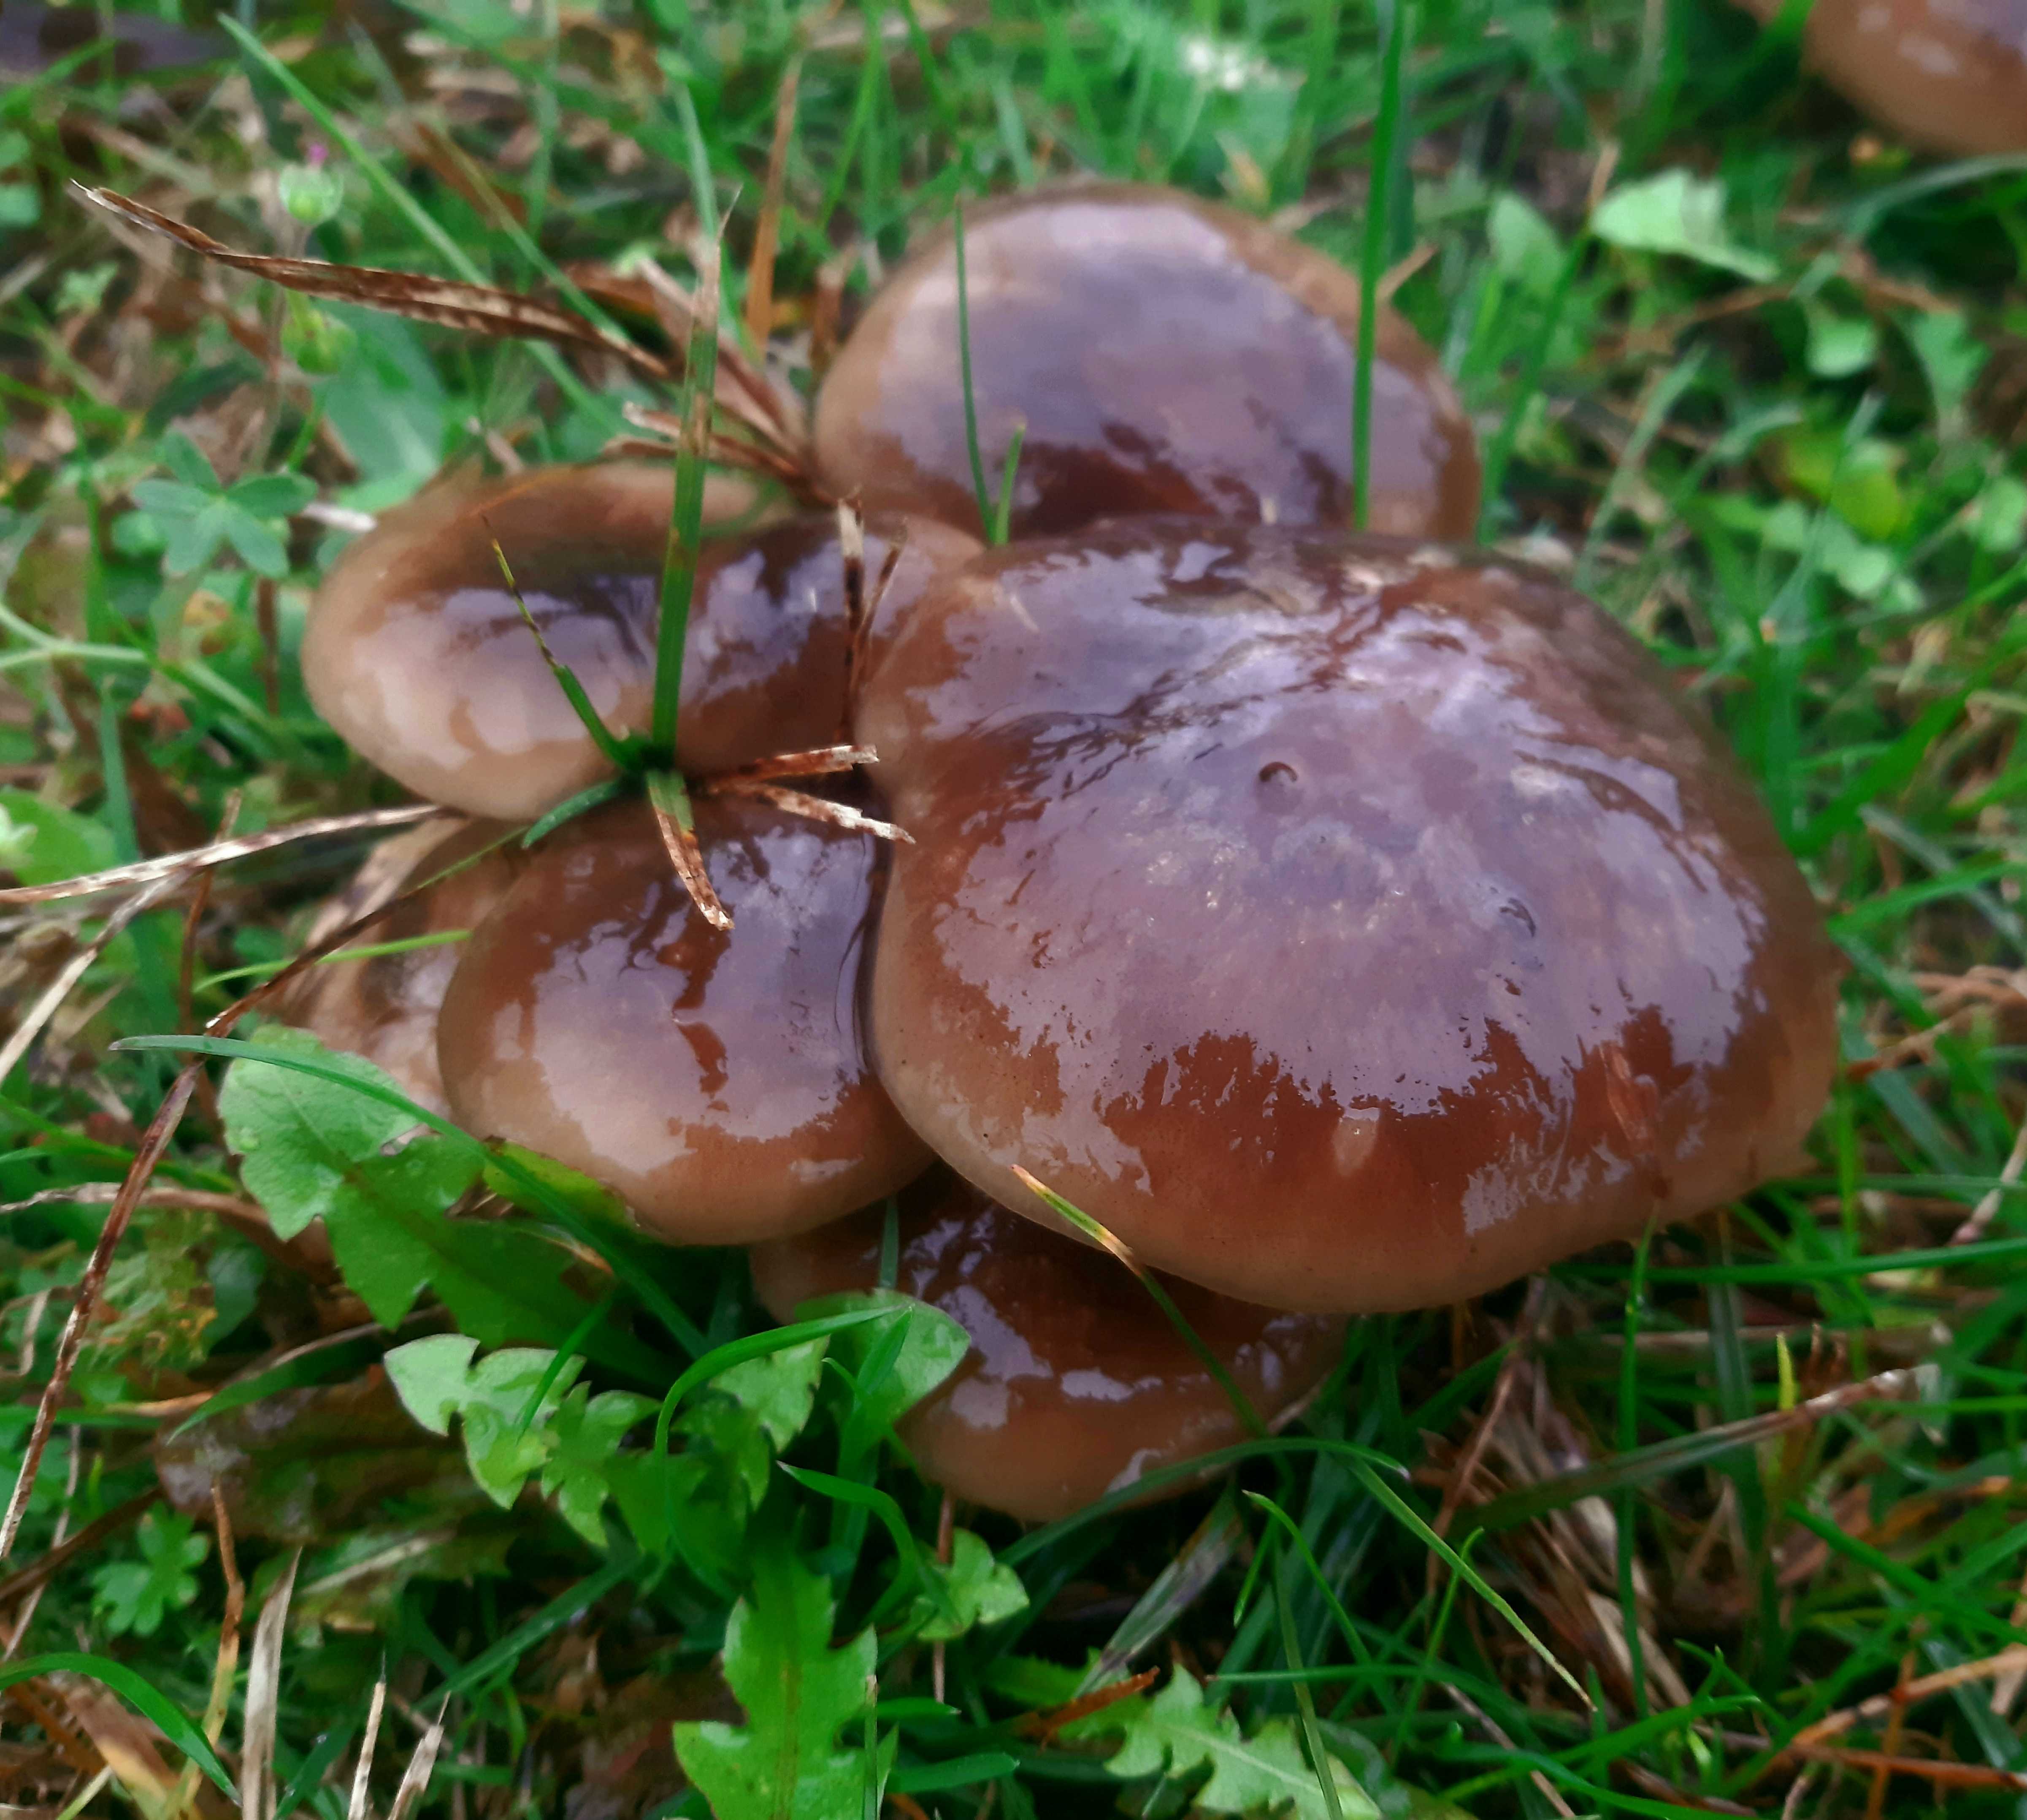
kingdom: Fungi
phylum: Basidiomycota
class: Agaricomycetes
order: Agaricales
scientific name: Agaricales
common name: champignonordenen
